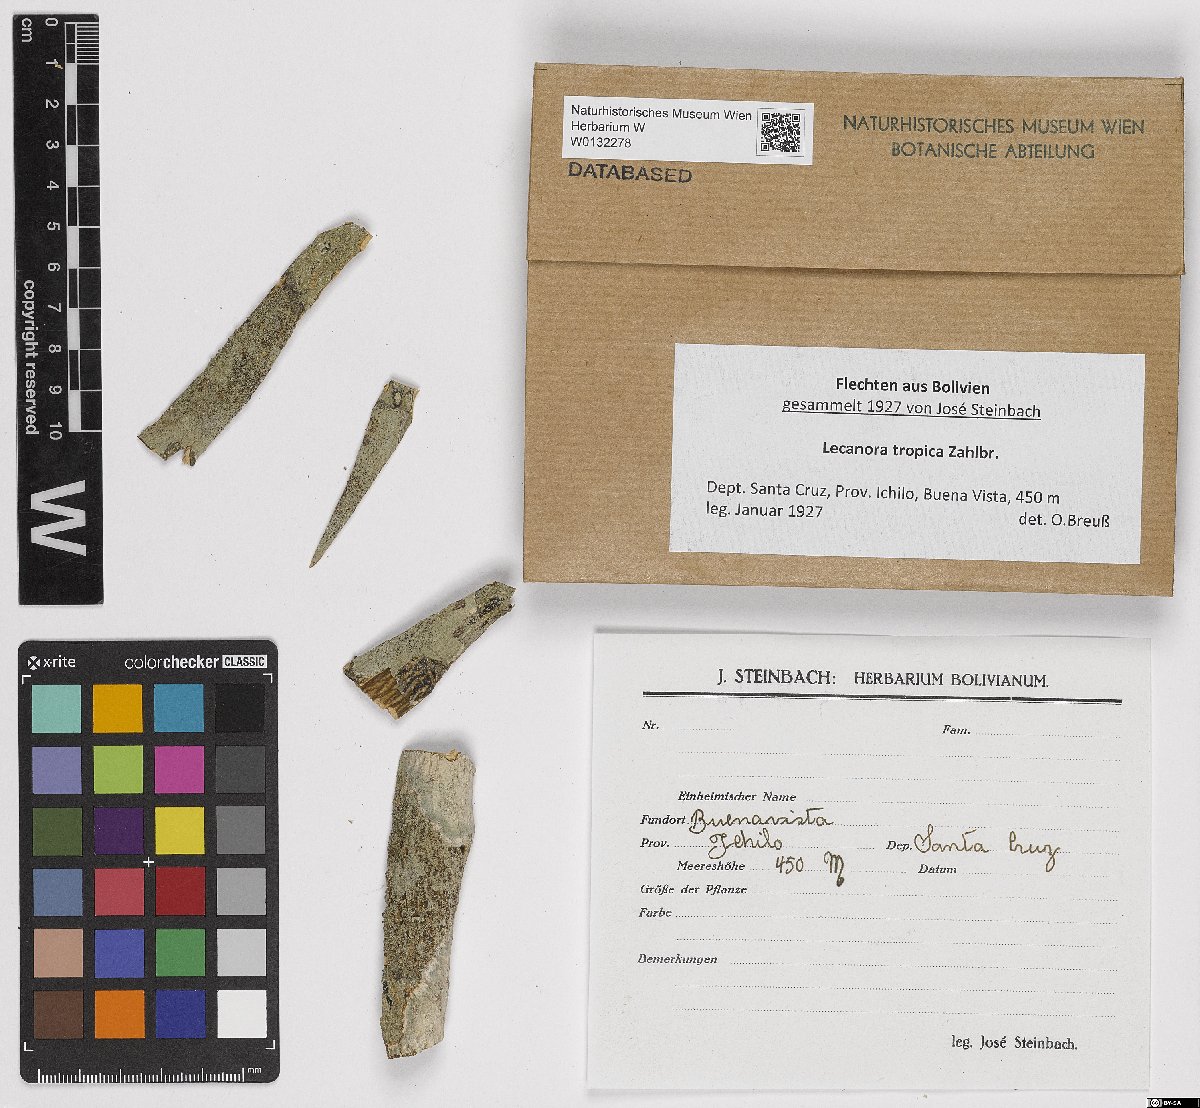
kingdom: Fungi
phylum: Ascomycota
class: Lecanoromycetes
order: Lecanorales
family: Lecanoraceae
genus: Lecanora
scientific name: Lecanora tropica
